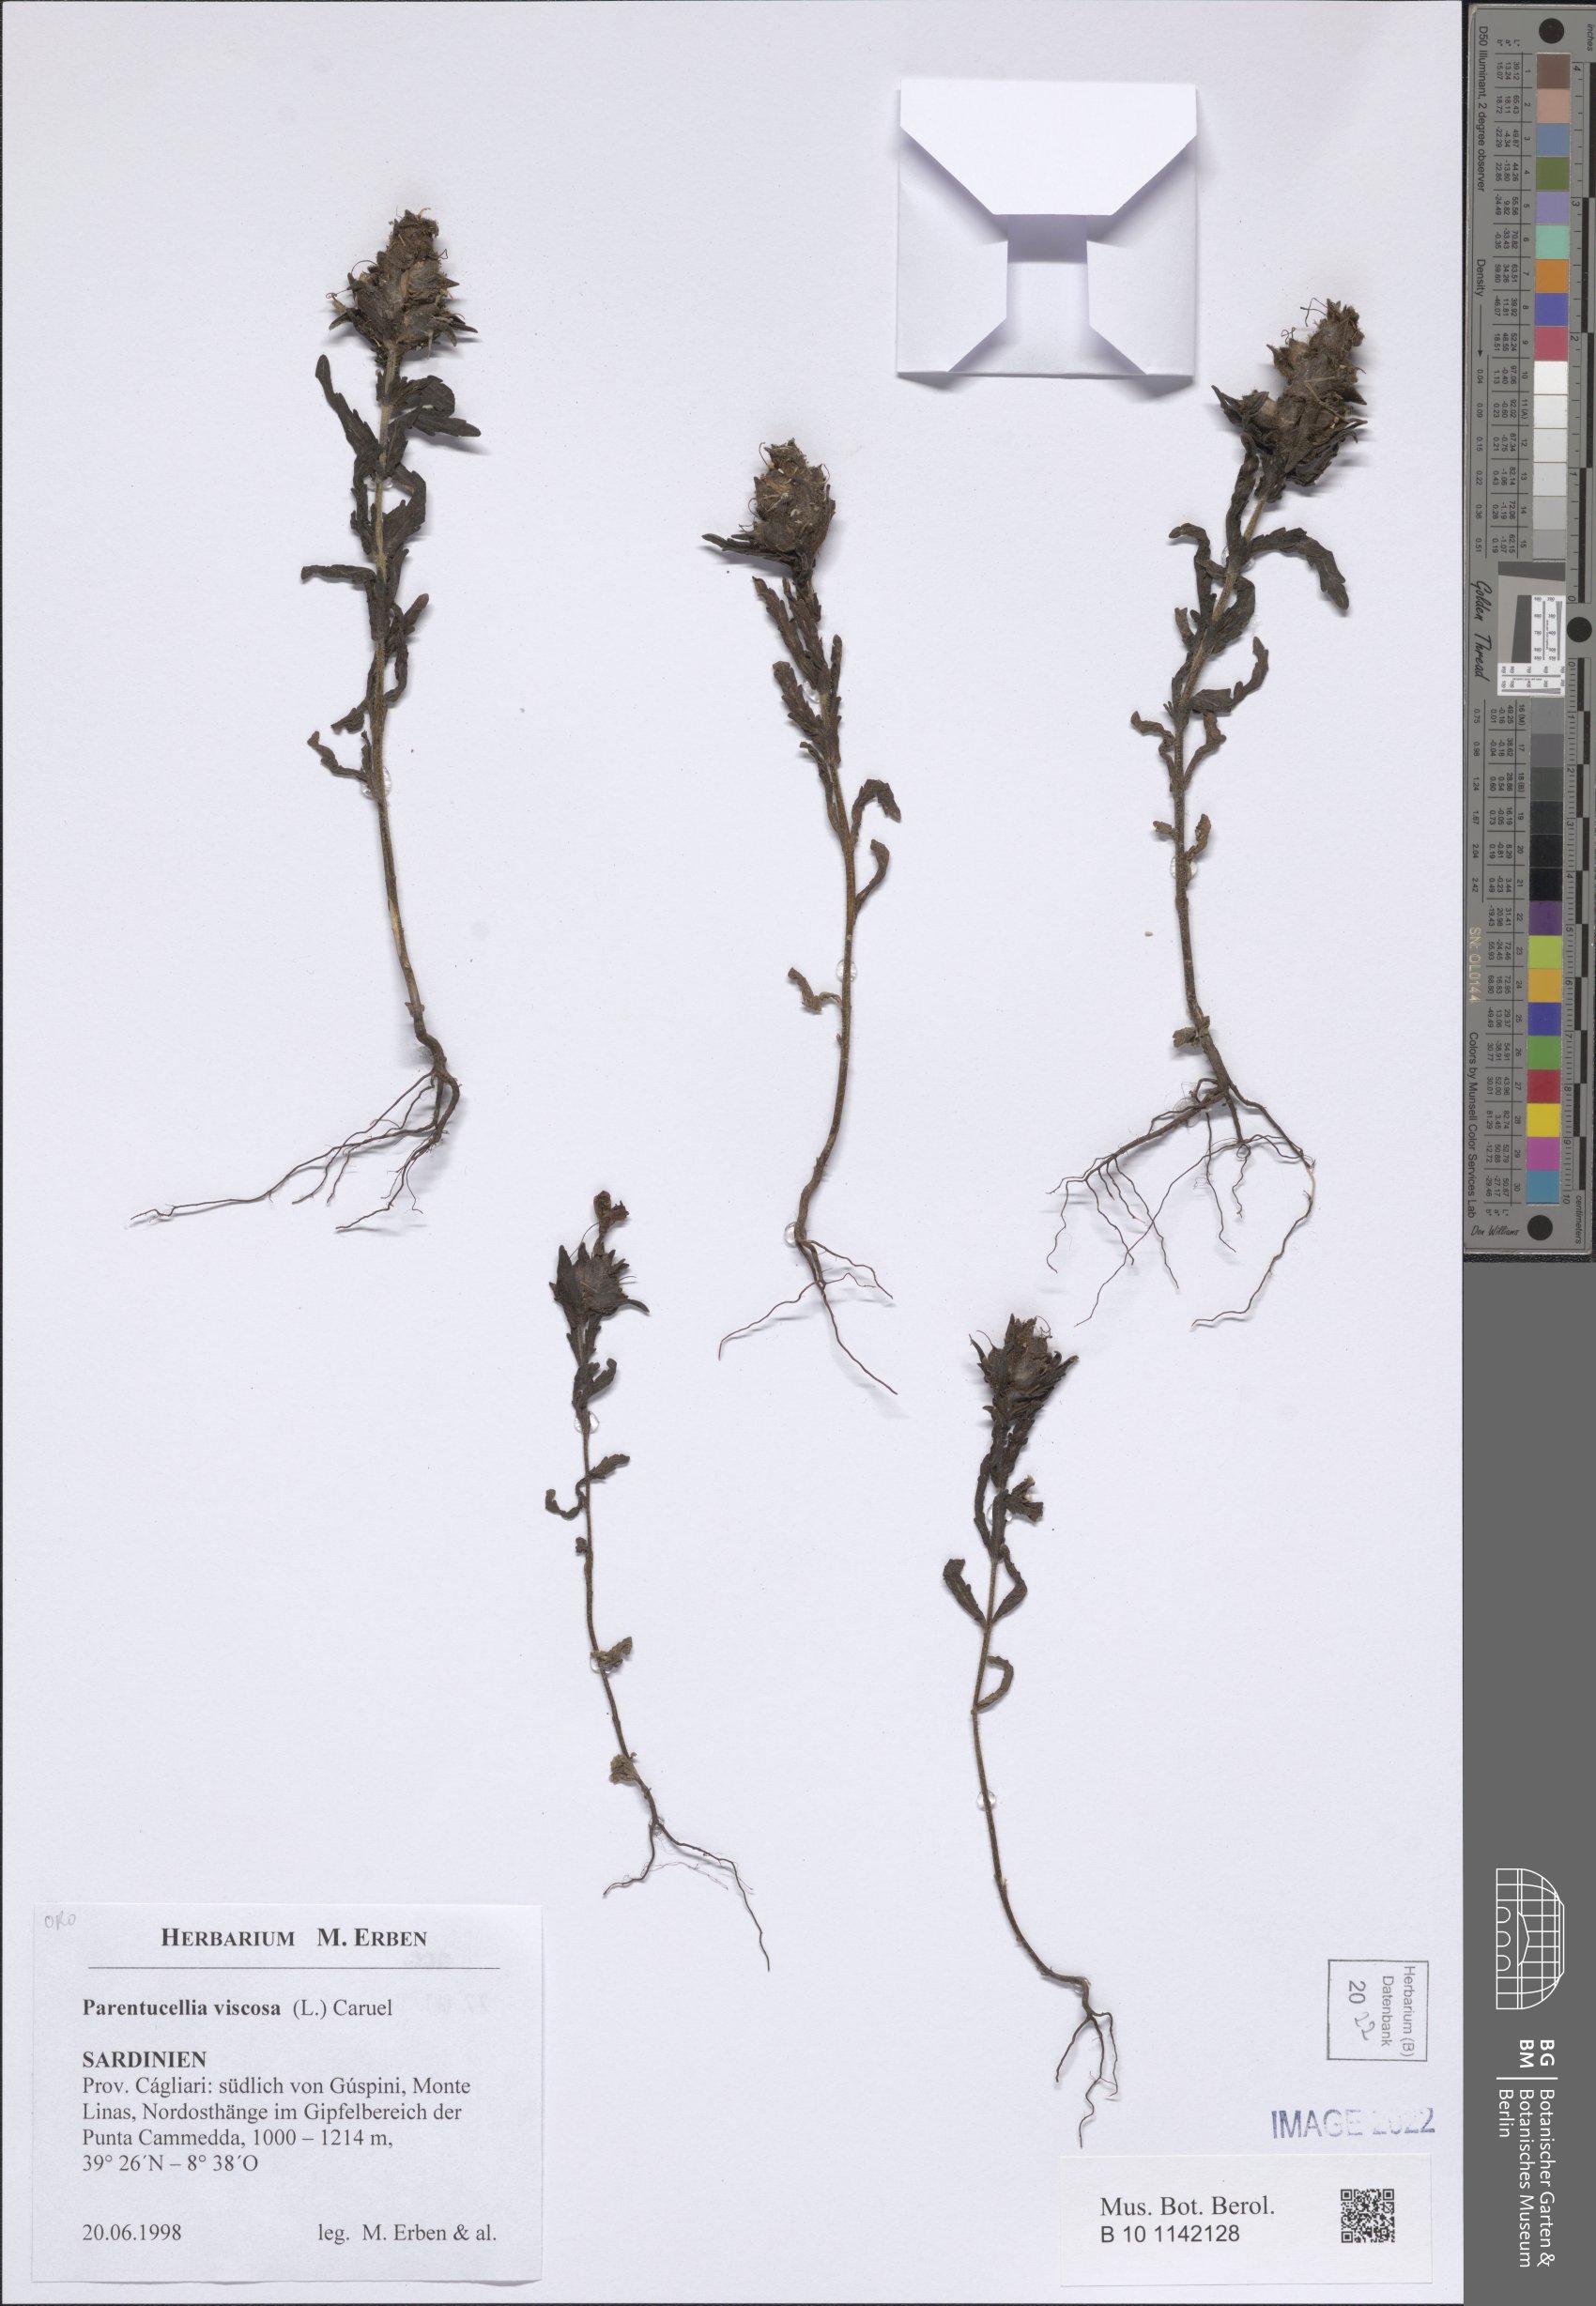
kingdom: Plantae
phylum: Tracheophyta
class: Magnoliopsida
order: Lamiales
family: Orobanchaceae
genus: Bellardia
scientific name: Bellardia viscosa
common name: Sticky parentucellia
